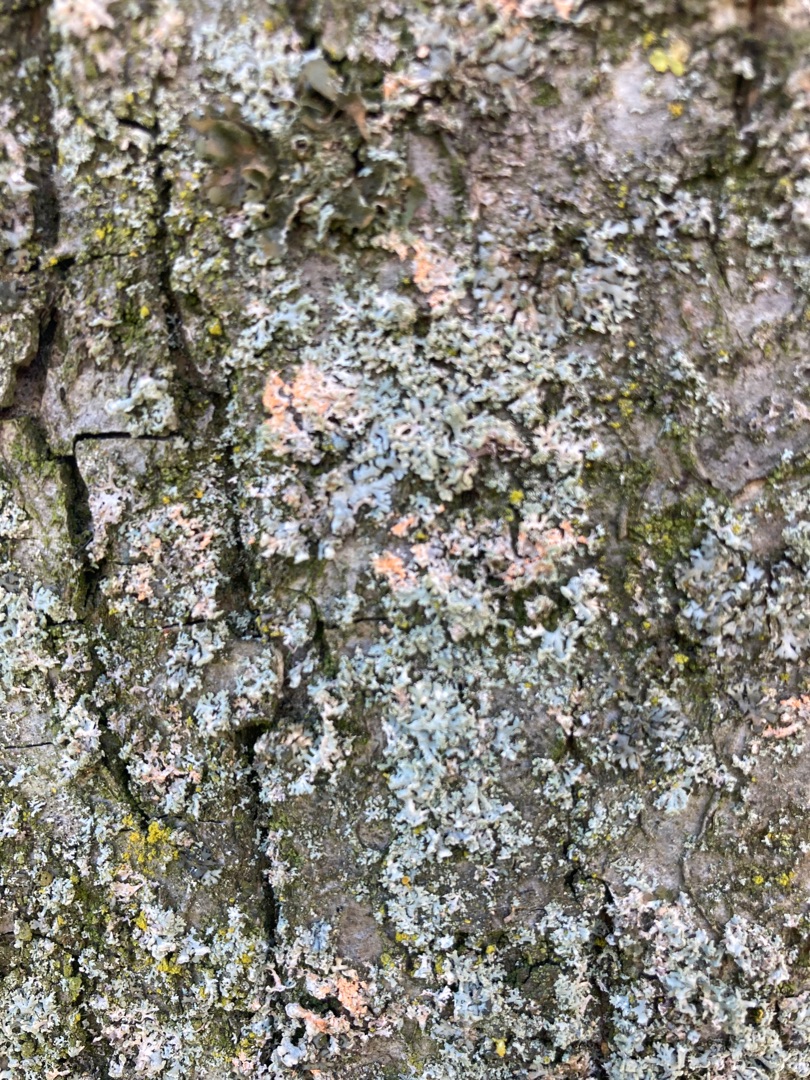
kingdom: Fungi
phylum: Ascomycota
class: Lecanoromycetes
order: Caliciales
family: Physciaceae
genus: Physcia
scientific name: Physcia tenella
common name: Spæd rosetlav
